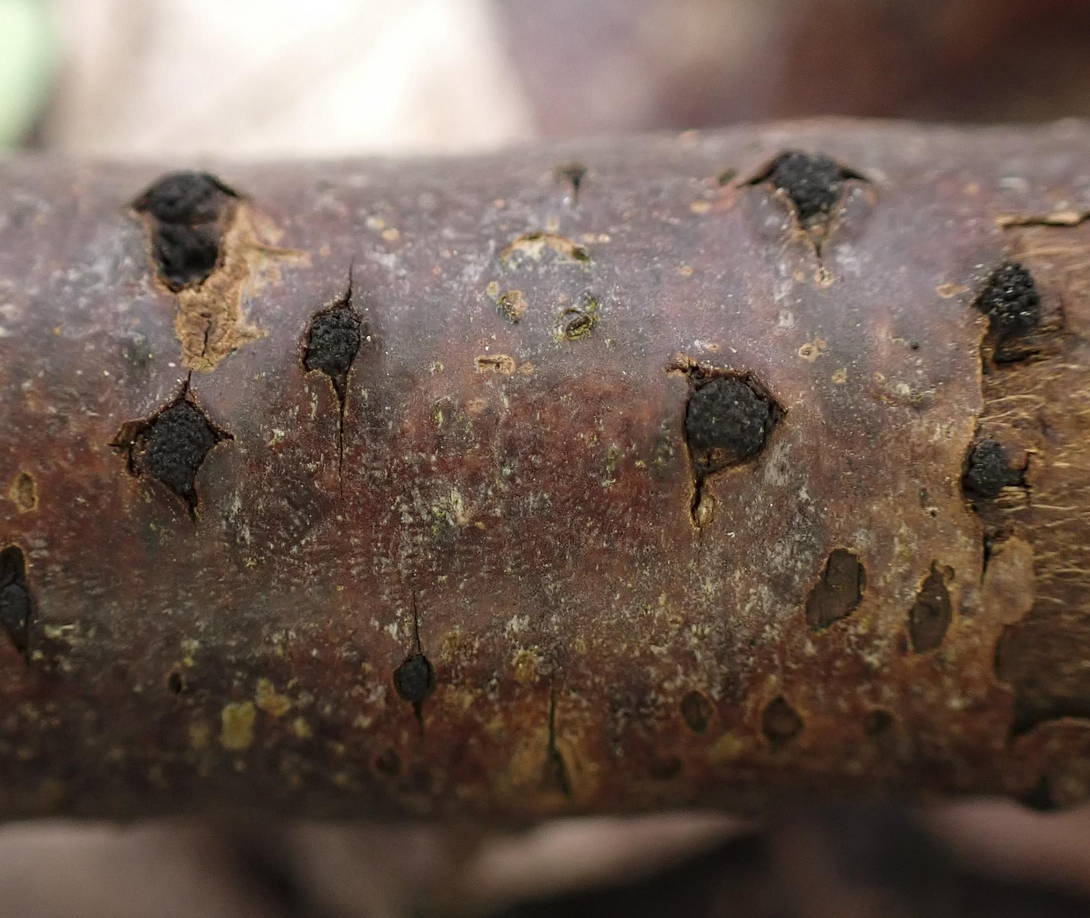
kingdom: Fungi
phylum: Ascomycota
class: Sordariomycetes
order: Xylariales
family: Diatrypaceae
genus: Eutypella
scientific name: Eutypella prunastri
